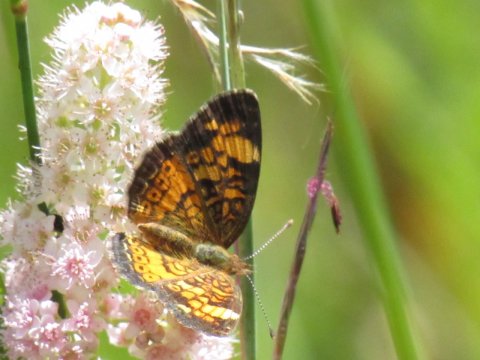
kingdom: Animalia
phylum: Arthropoda
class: Insecta
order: Lepidoptera
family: Nymphalidae
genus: Phyciodes
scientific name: Phyciodes tharos
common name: Pearl Crescent
